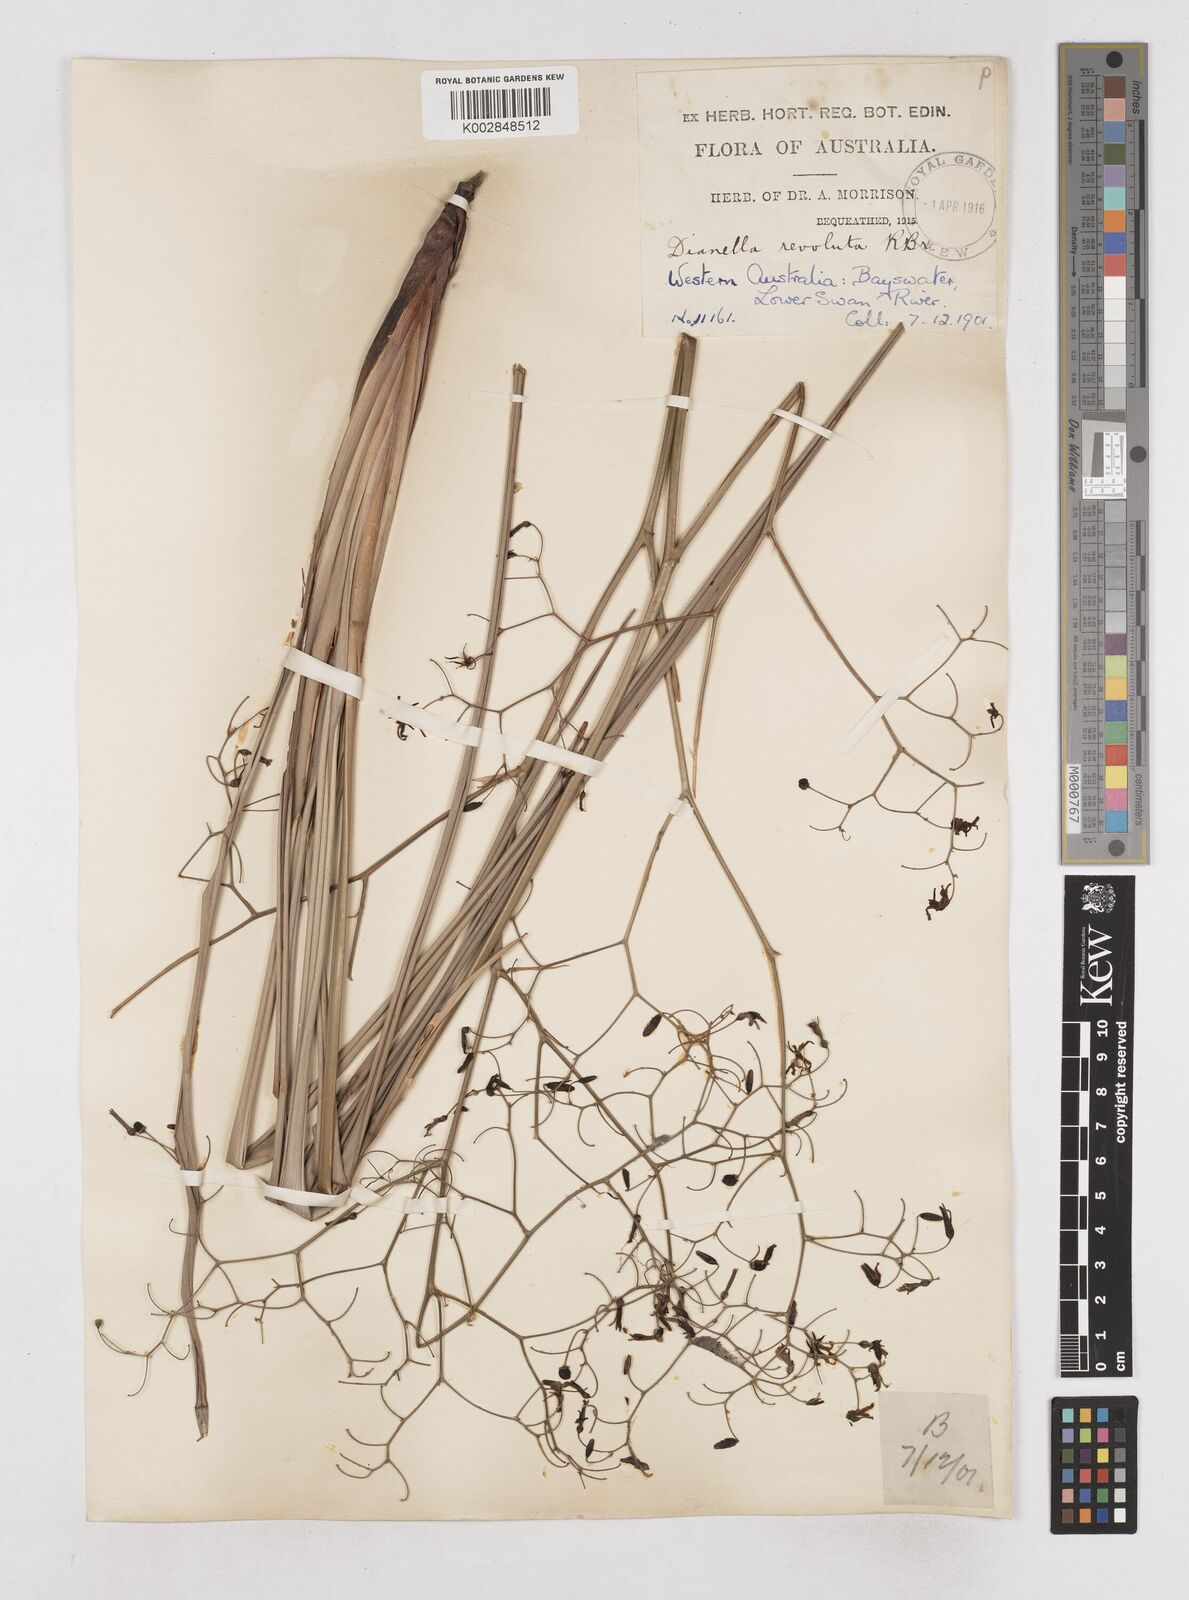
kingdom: Plantae
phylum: Tracheophyta
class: Liliopsida
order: Asparagales
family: Asphodelaceae
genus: Dianella
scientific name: Dianella revoluta
